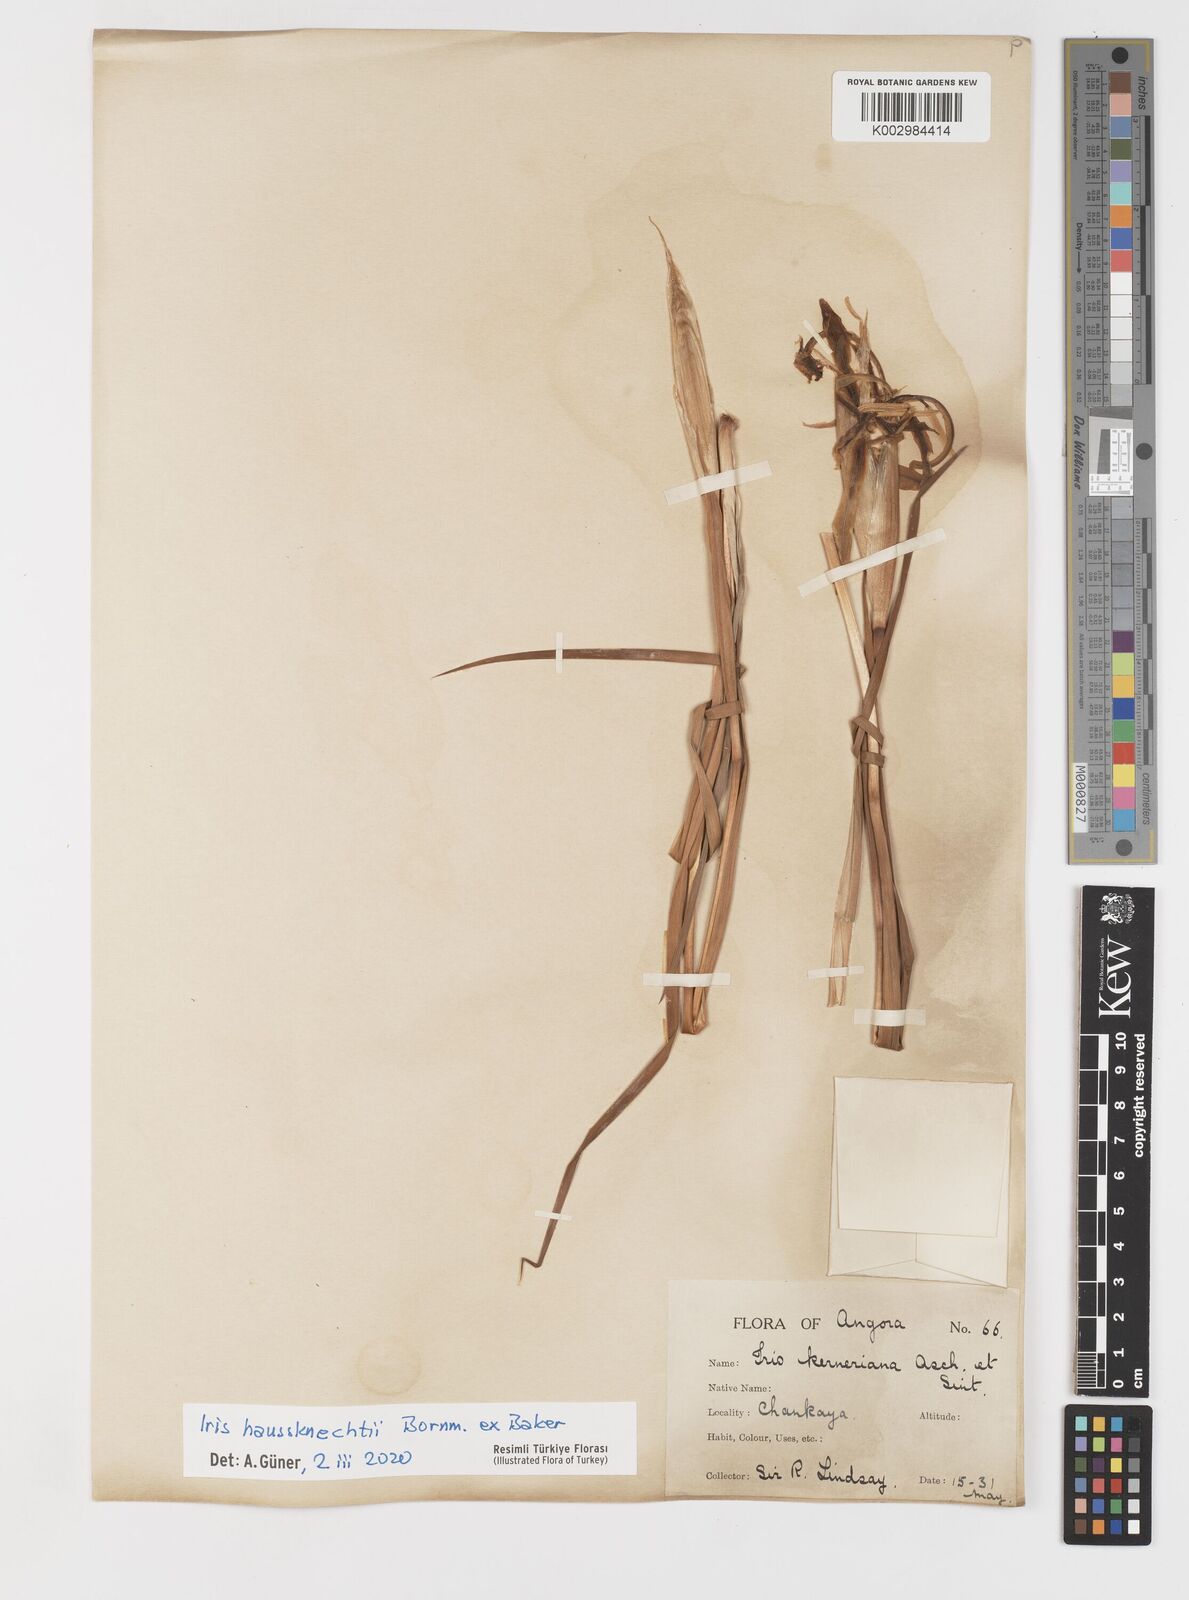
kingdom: Plantae
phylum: Tracheophyta
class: Liliopsida
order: Asparagales
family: Iridaceae
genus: Iris
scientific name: Iris haussknechtii
